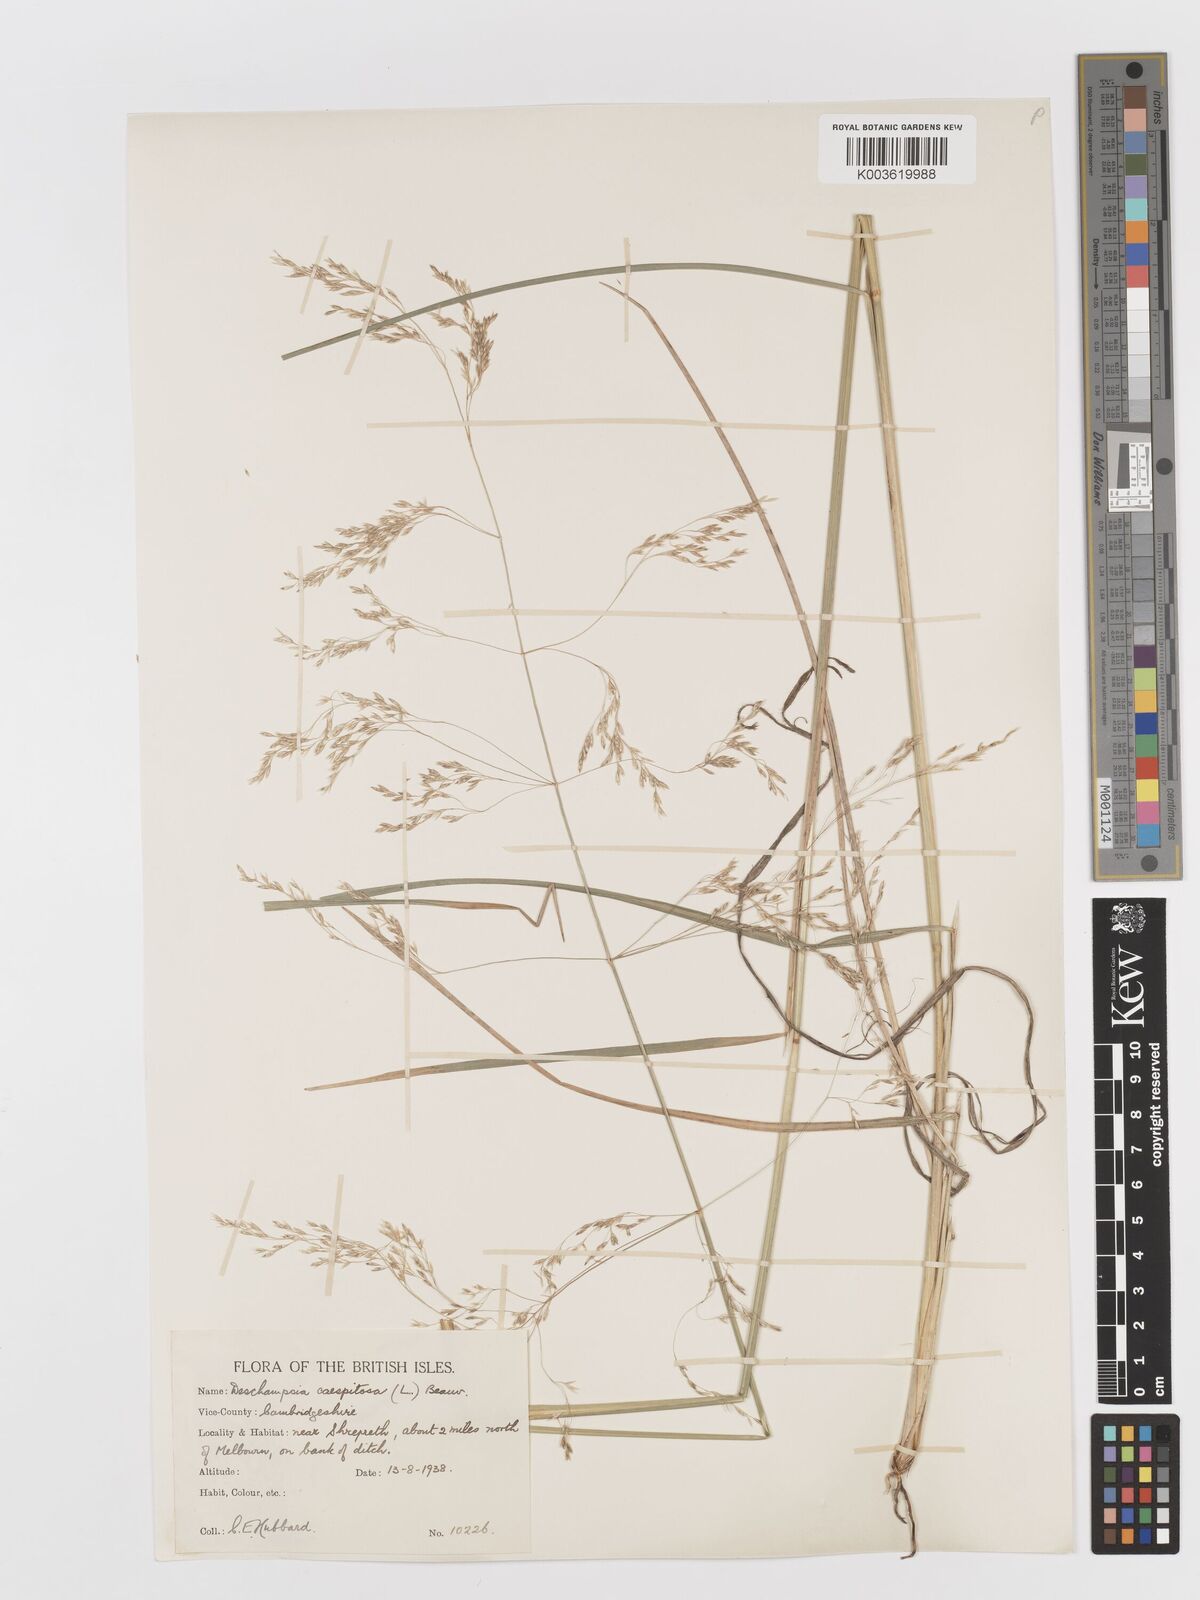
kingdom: Plantae
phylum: Tracheophyta
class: Liliopsida
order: Poales
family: Poaceae
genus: Deschampsia
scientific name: Deschampsia cespitosa
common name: Tufted hair-grass
